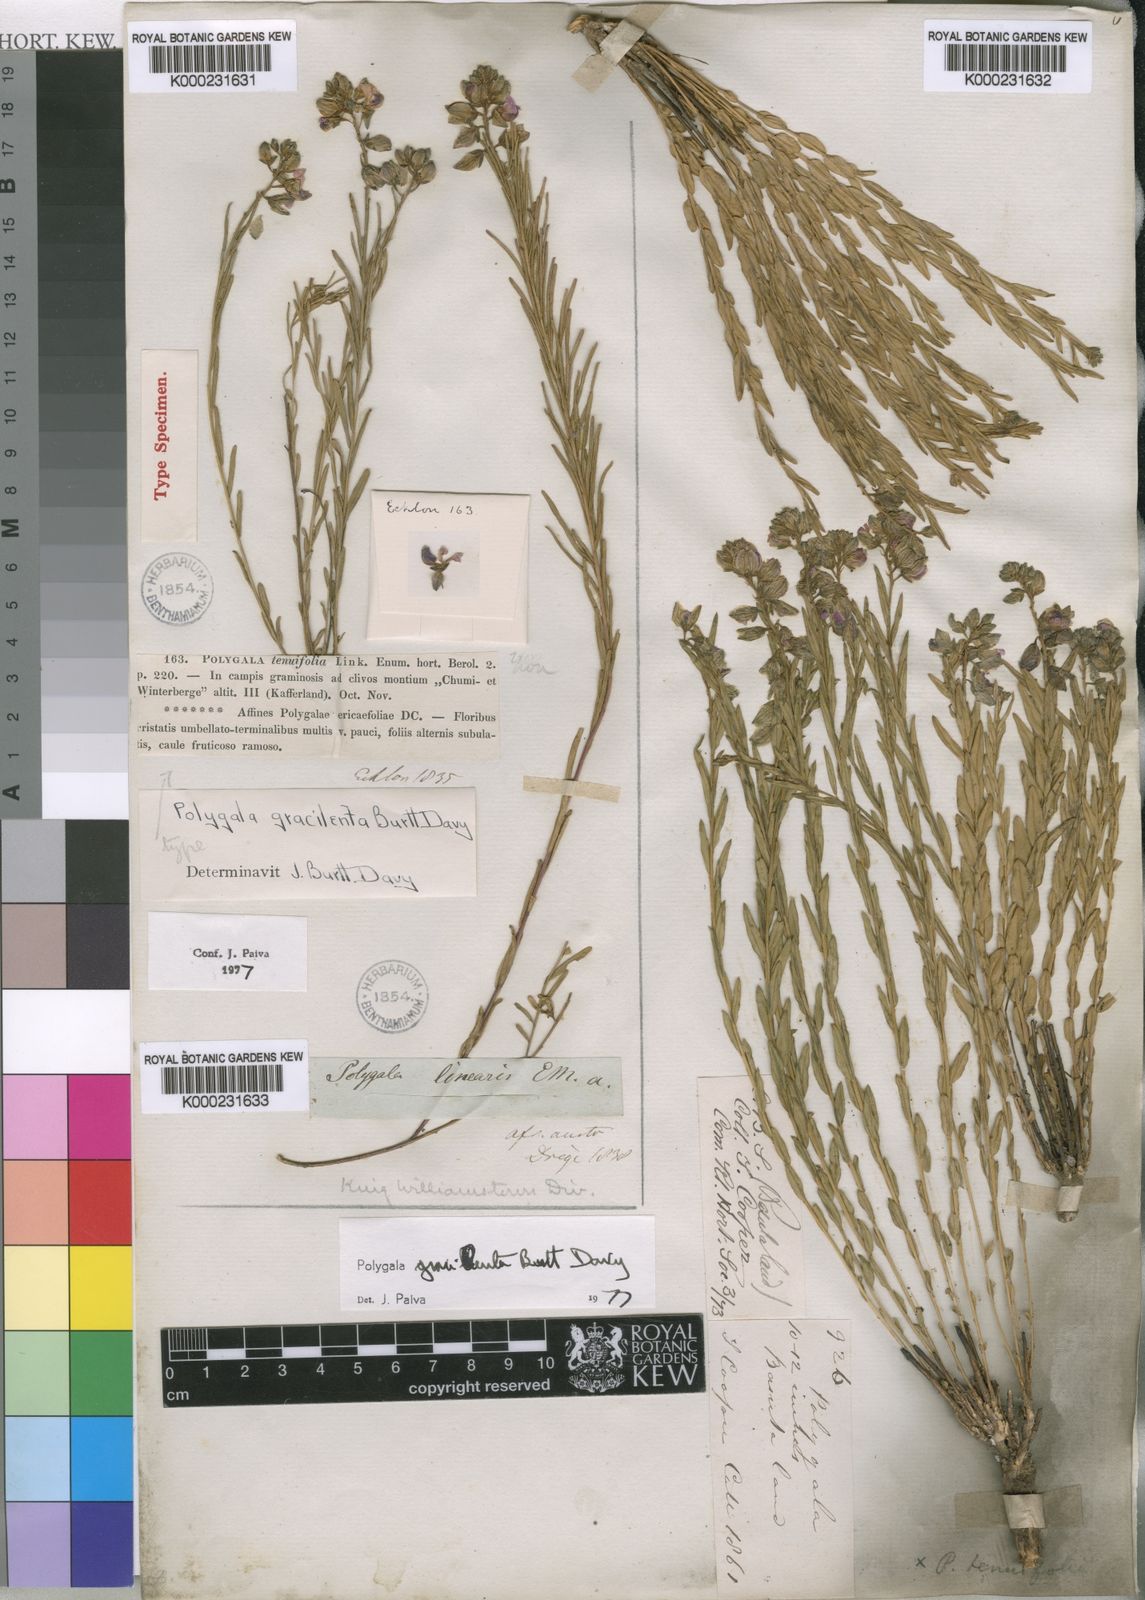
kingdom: Plantae
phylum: Tracheophyta
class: Magnoliopsida
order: Fabales
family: Polygalaceae
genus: Polygala
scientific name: Polygala gracilenta
